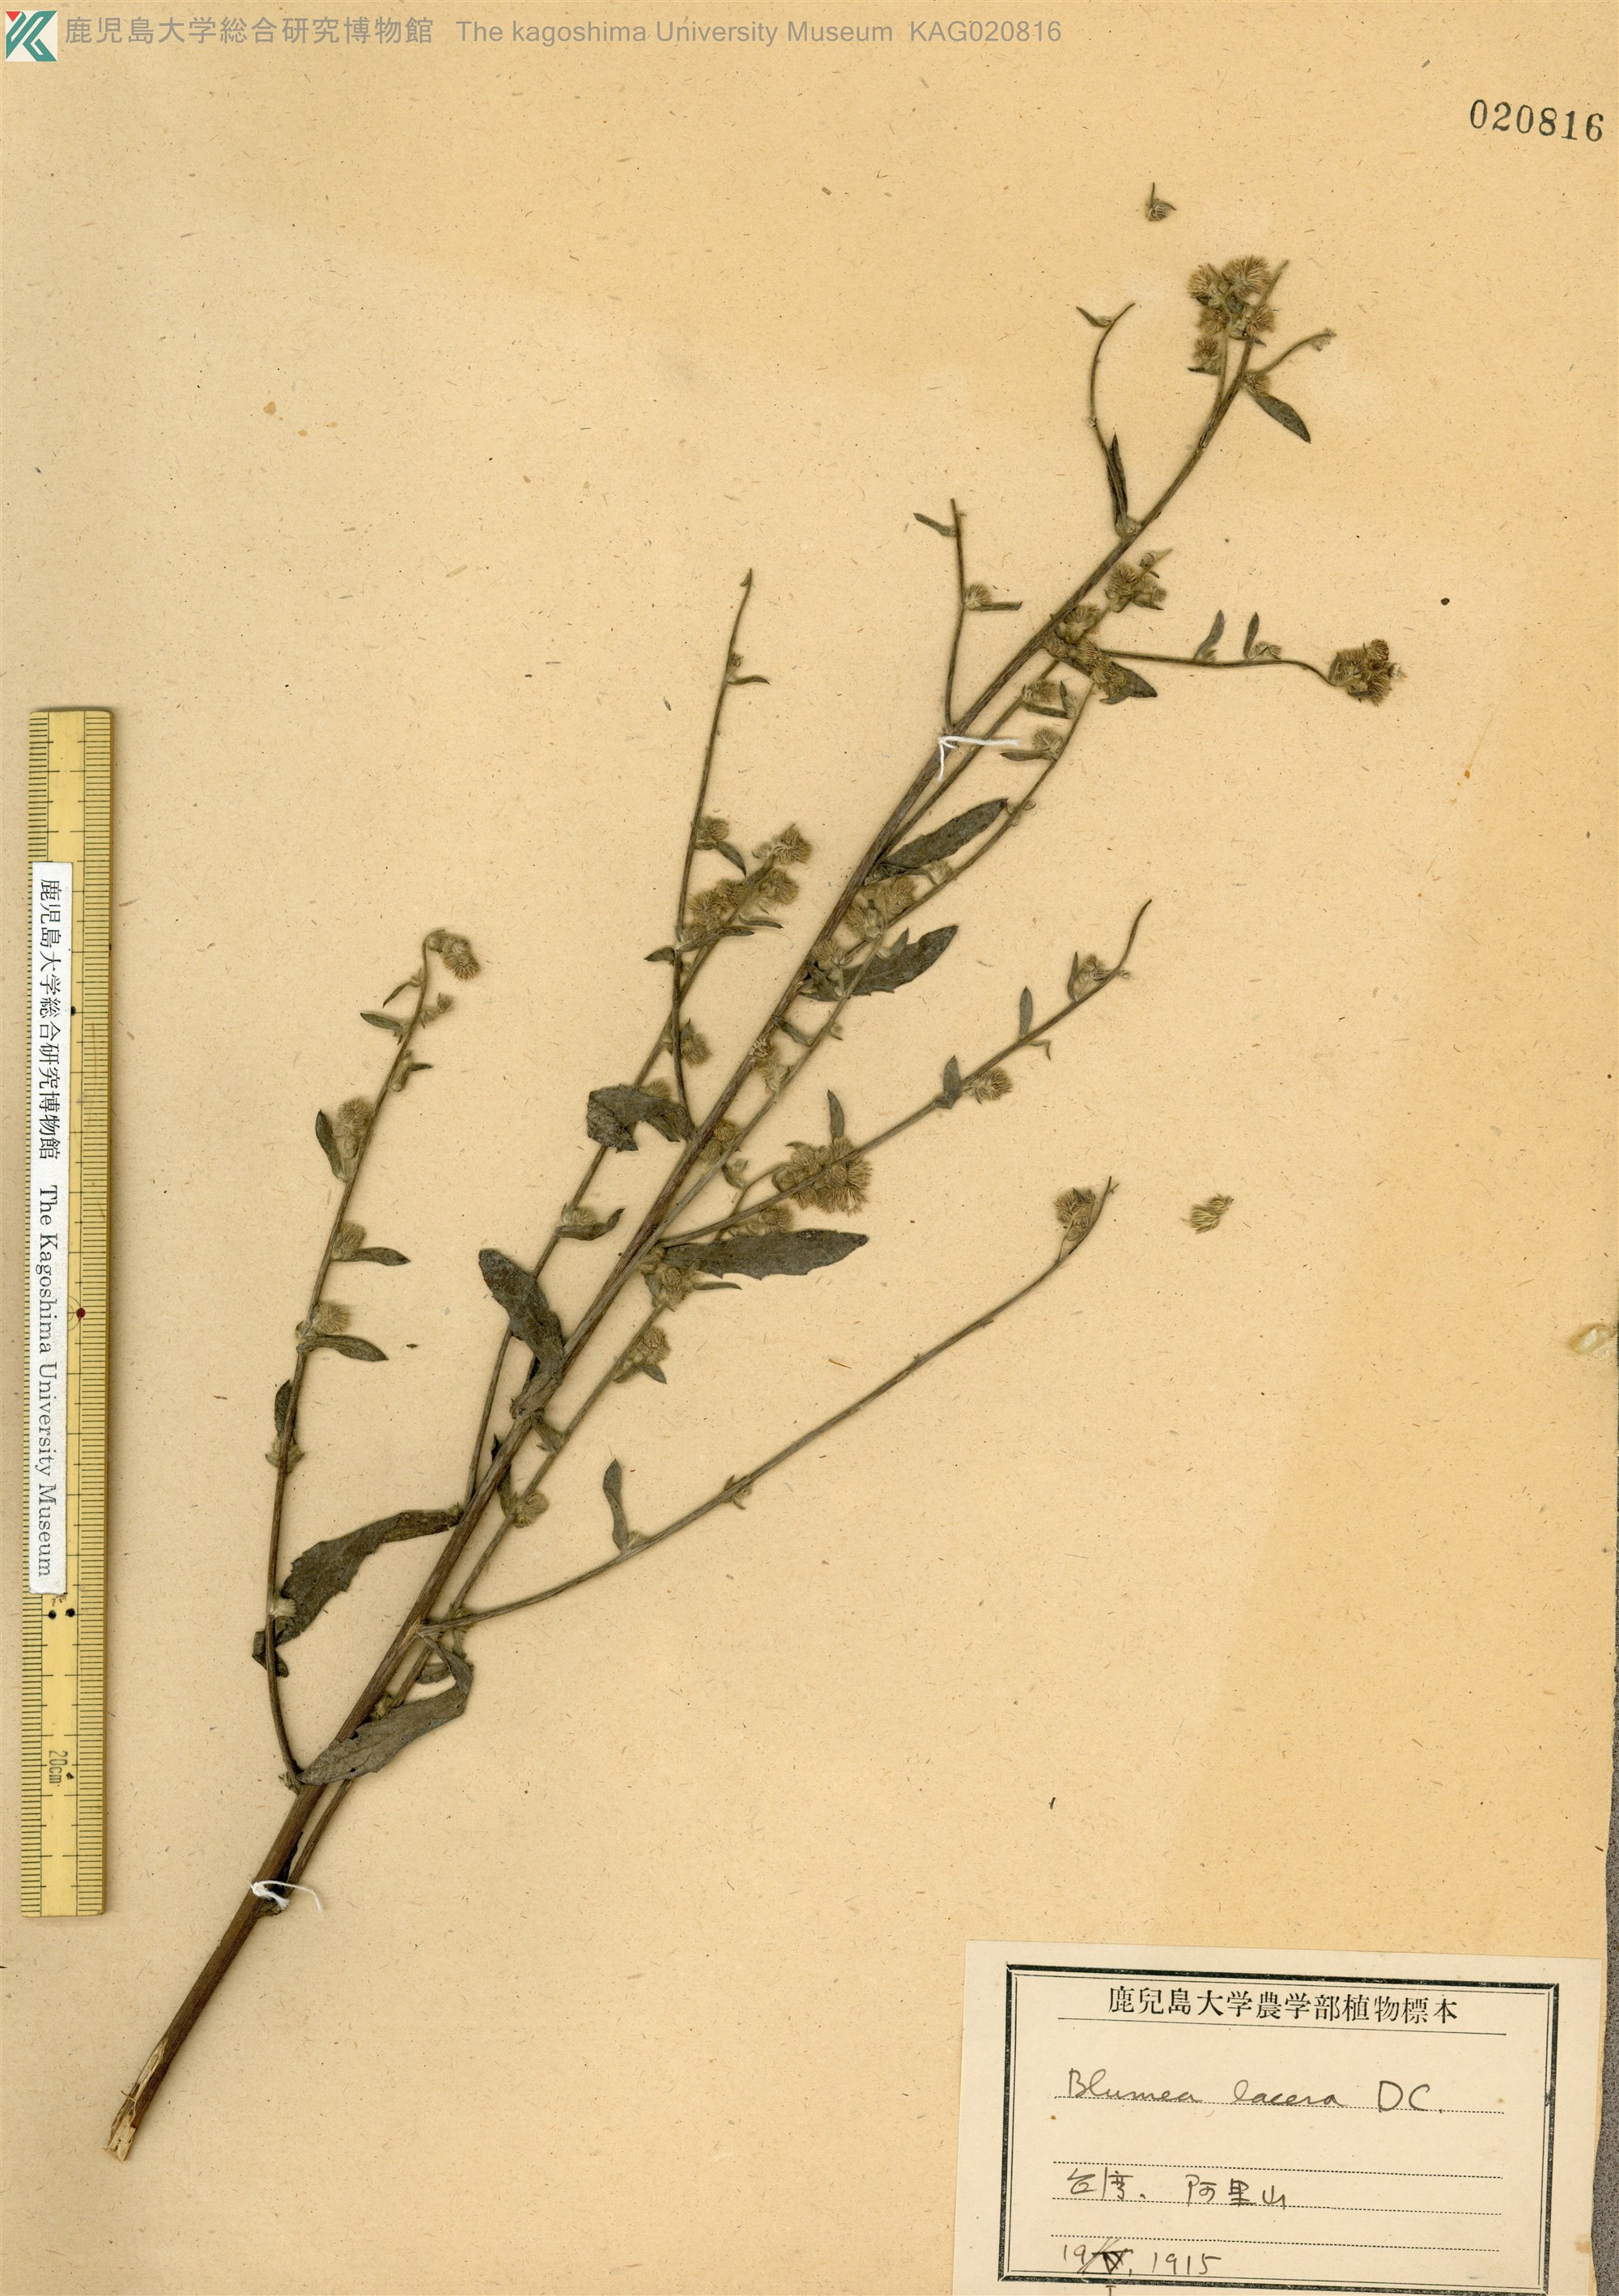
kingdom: Plantae
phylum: Tracheophyta
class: Magnoliopsida
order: Asterales
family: Asteraceae
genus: Blumea
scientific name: Blumea lacera
